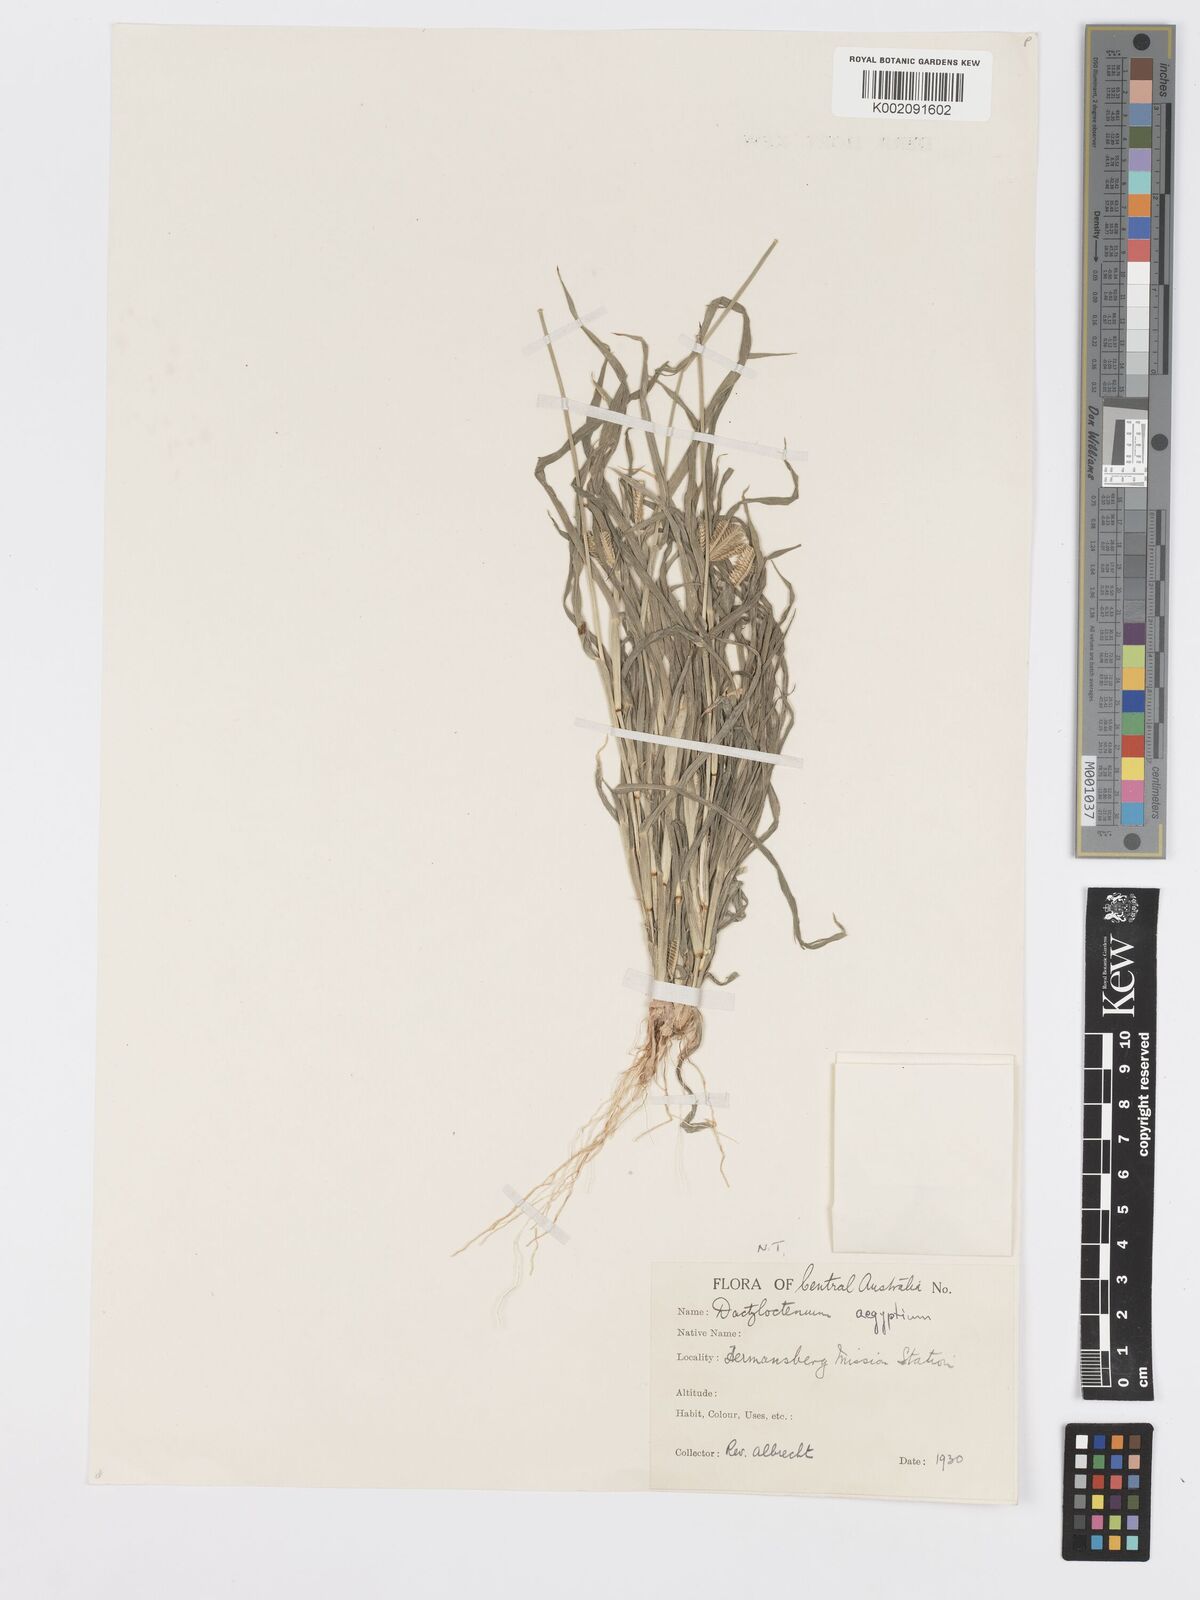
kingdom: Plantae
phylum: Tracheophyta
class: Liliopsida
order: Poales
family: Poaceae
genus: Dactyloctenium
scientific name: Dactyloctenium radulans
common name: Button-grass
